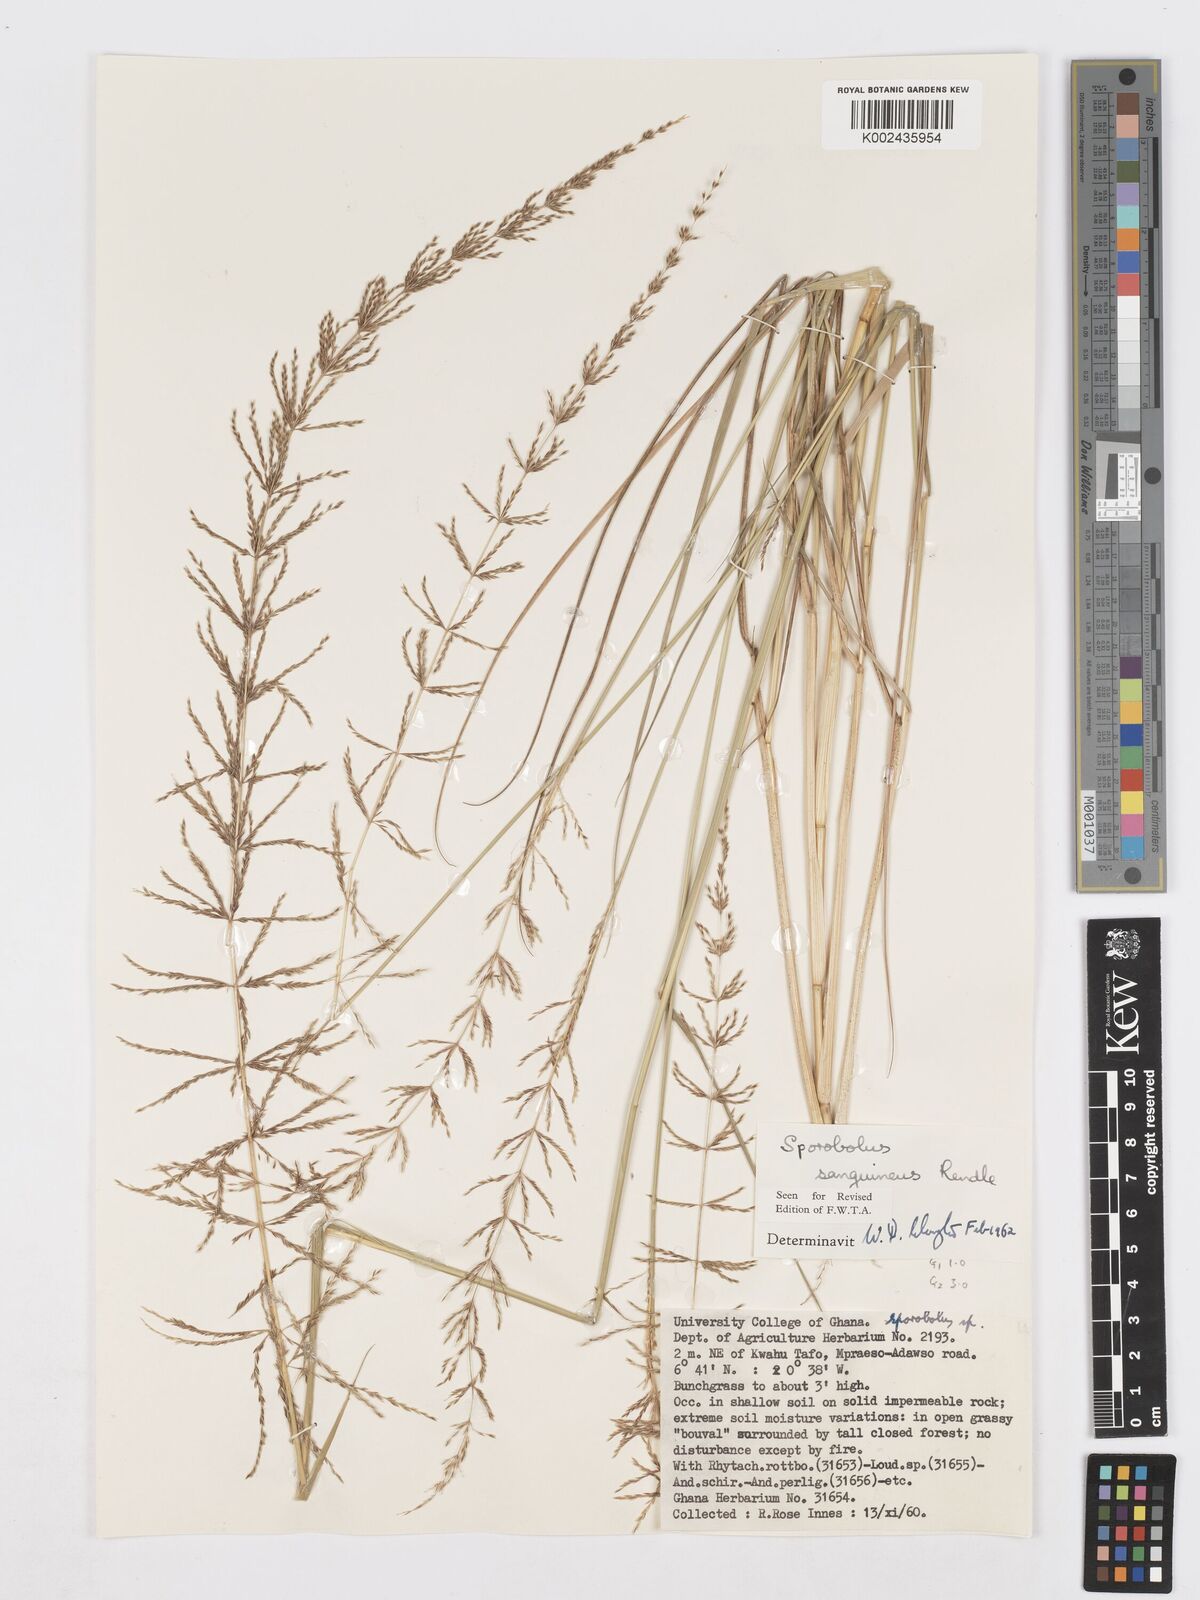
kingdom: Plantae
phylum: Tracheophyta
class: Liliopsida
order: Poales
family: Poaceae
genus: Sporobolus
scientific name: Sporobolus sanguineus
